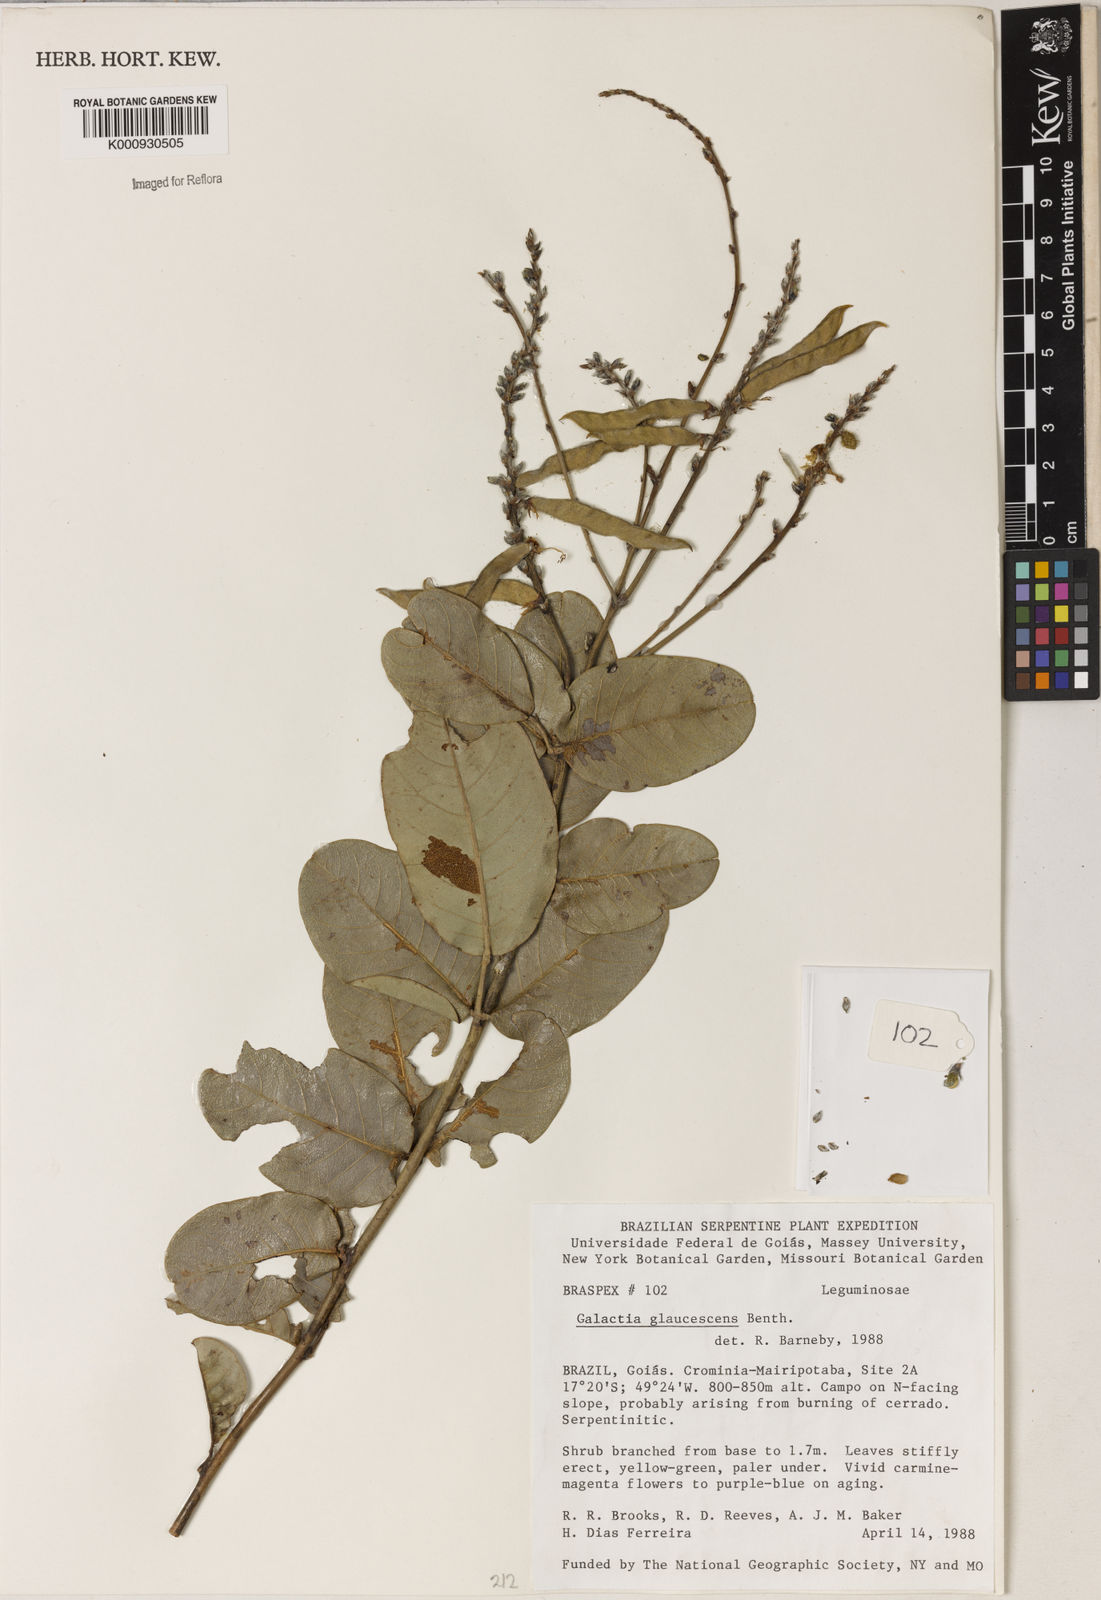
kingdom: Plantae
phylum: Tracheophyta
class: Magnoliopsida
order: Fabales
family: Fabaceae
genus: Galactia
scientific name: Galactia glaucescens
